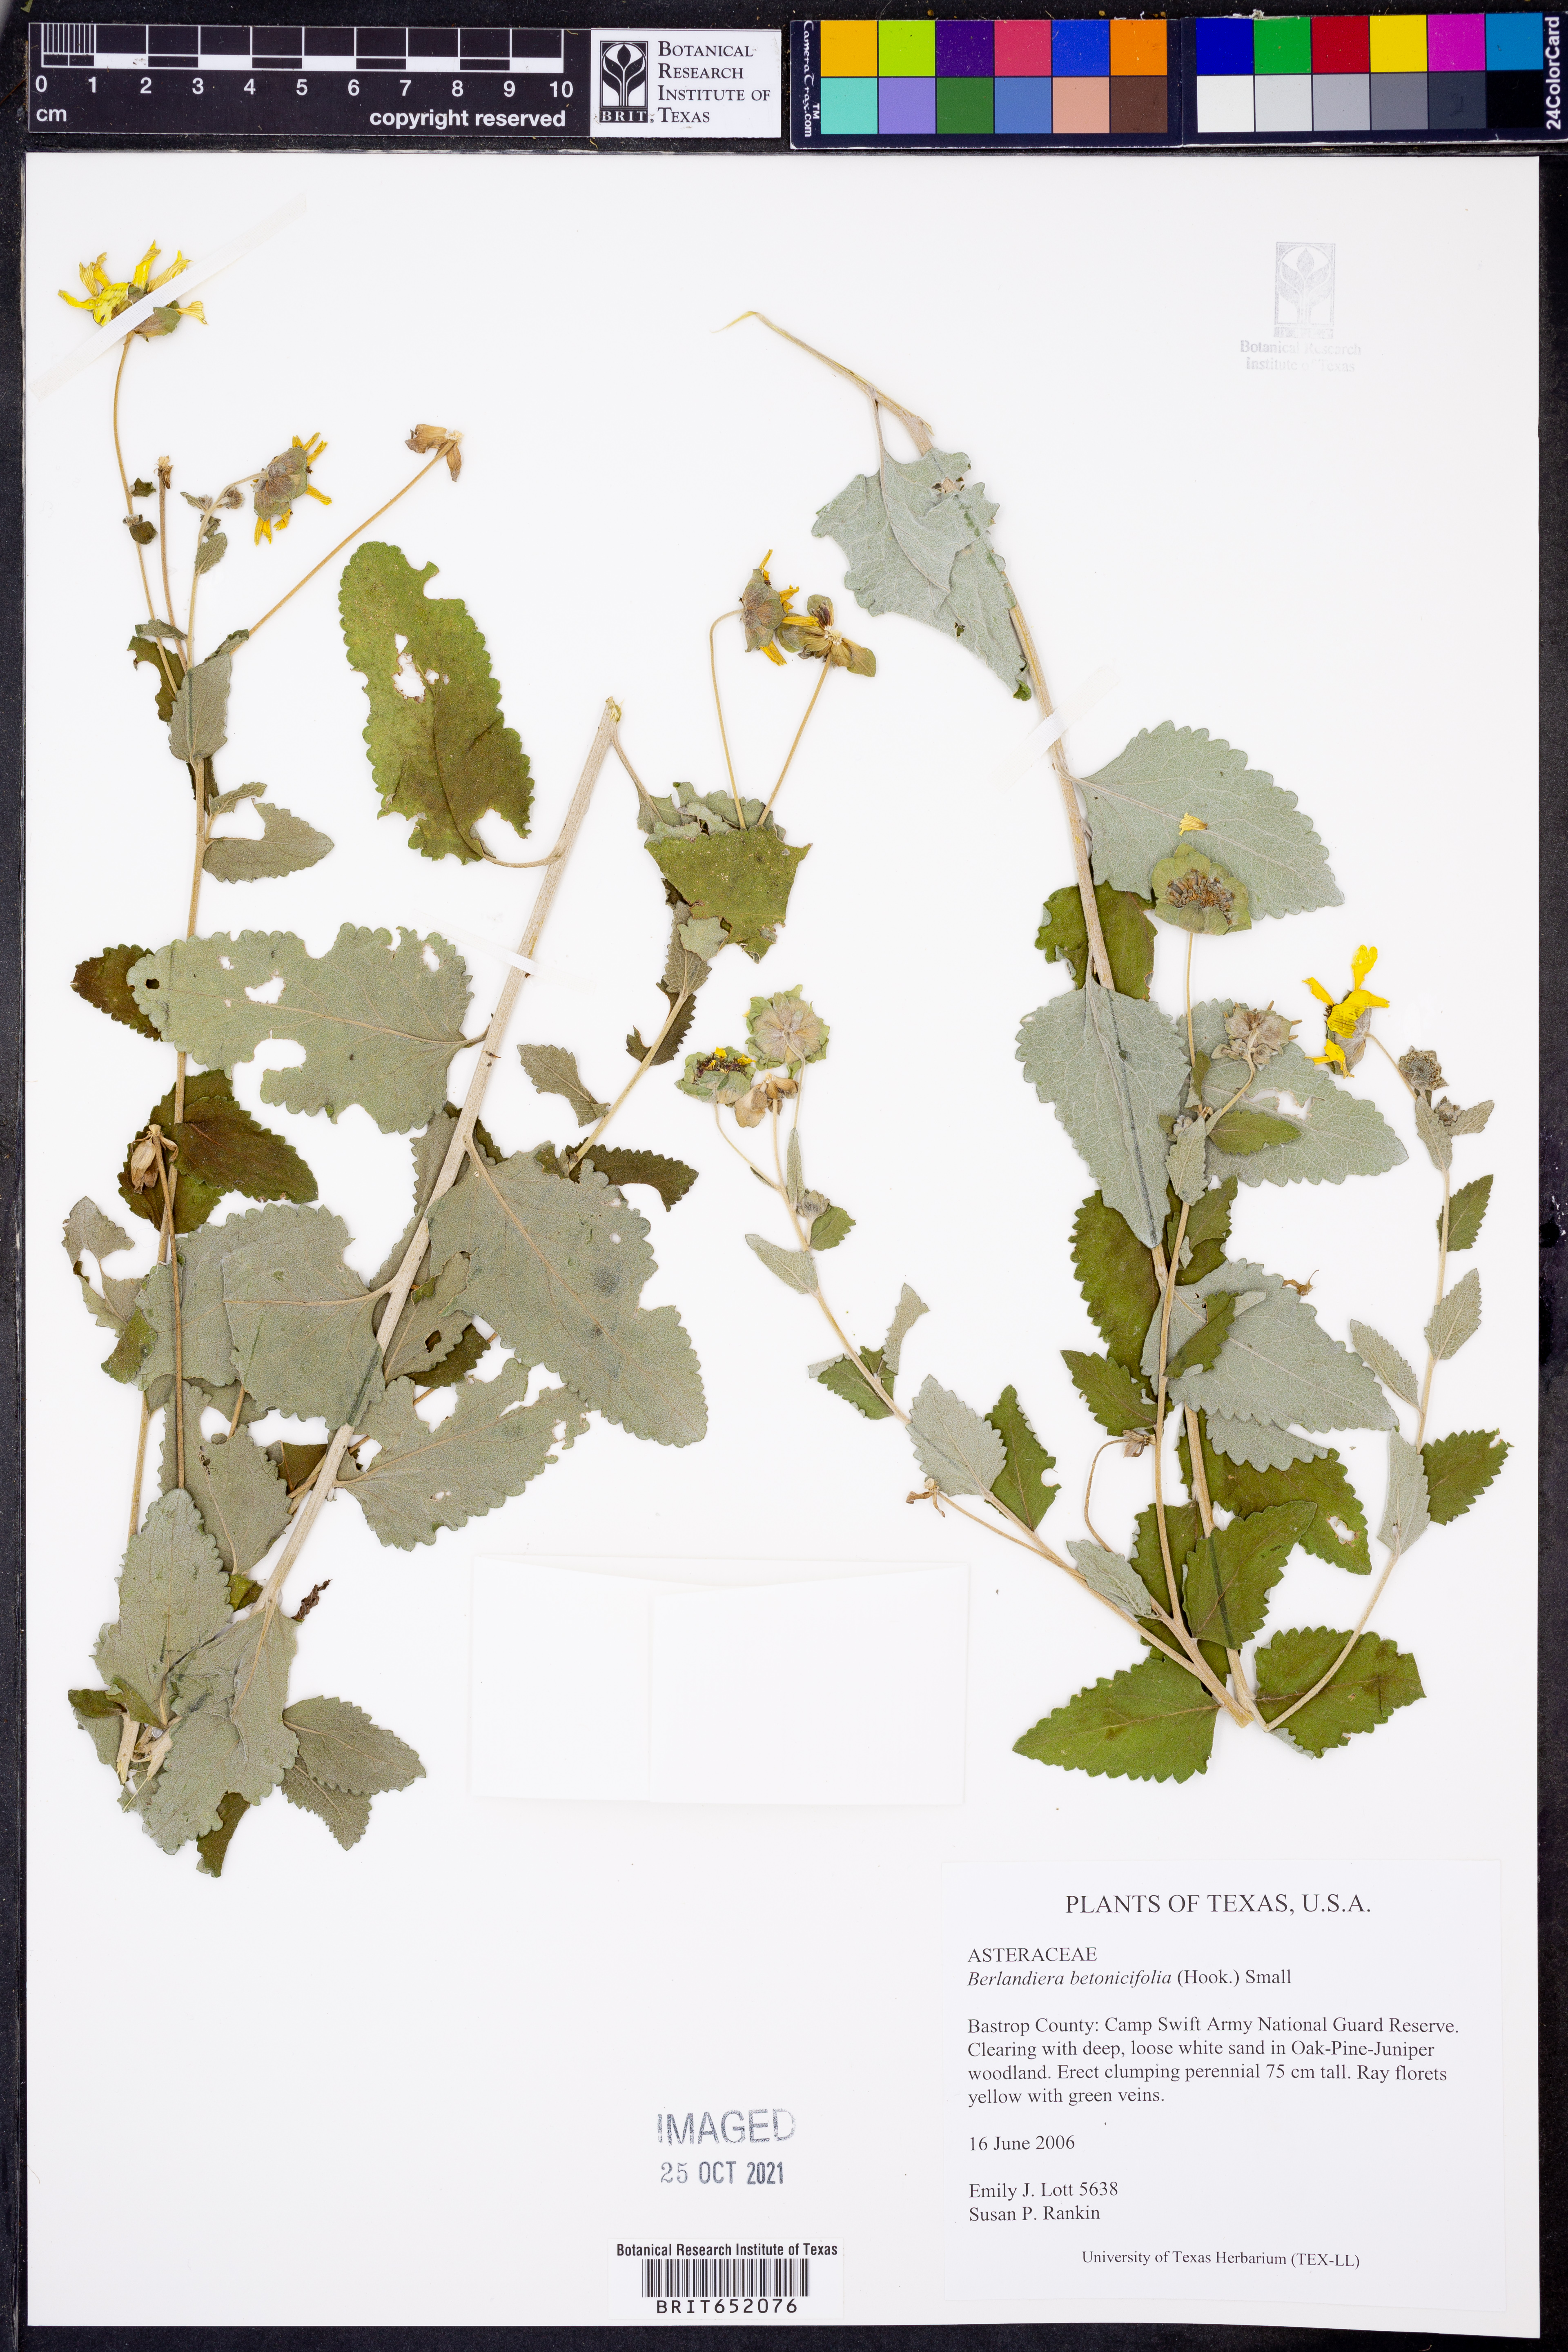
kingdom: Plantae
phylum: Tracheophyta
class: Magnoliopsida
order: Asterales
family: Asteraceae
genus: Berlandiera
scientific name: Berlandiera betonicifolia
